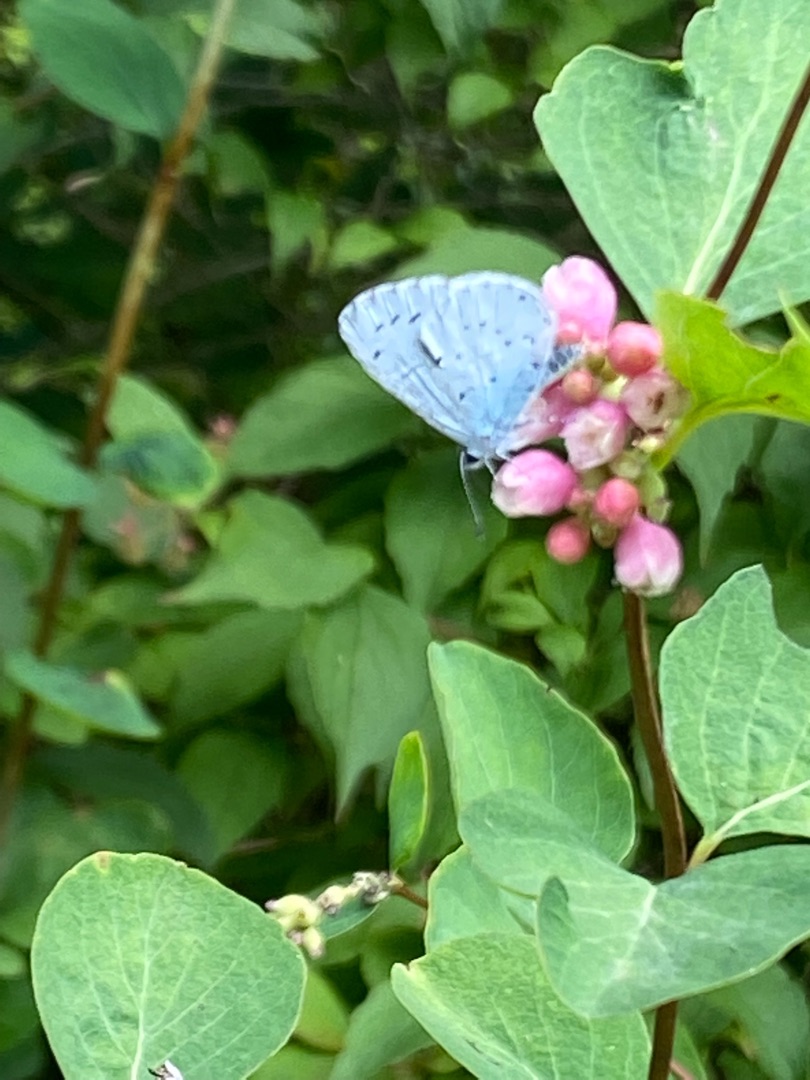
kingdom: Animalia
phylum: Arthropoda
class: Insecta
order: Lepidoptera
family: Lycaenidae
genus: Celastrina
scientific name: Celastrina argiolus
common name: Skovblåfugl
